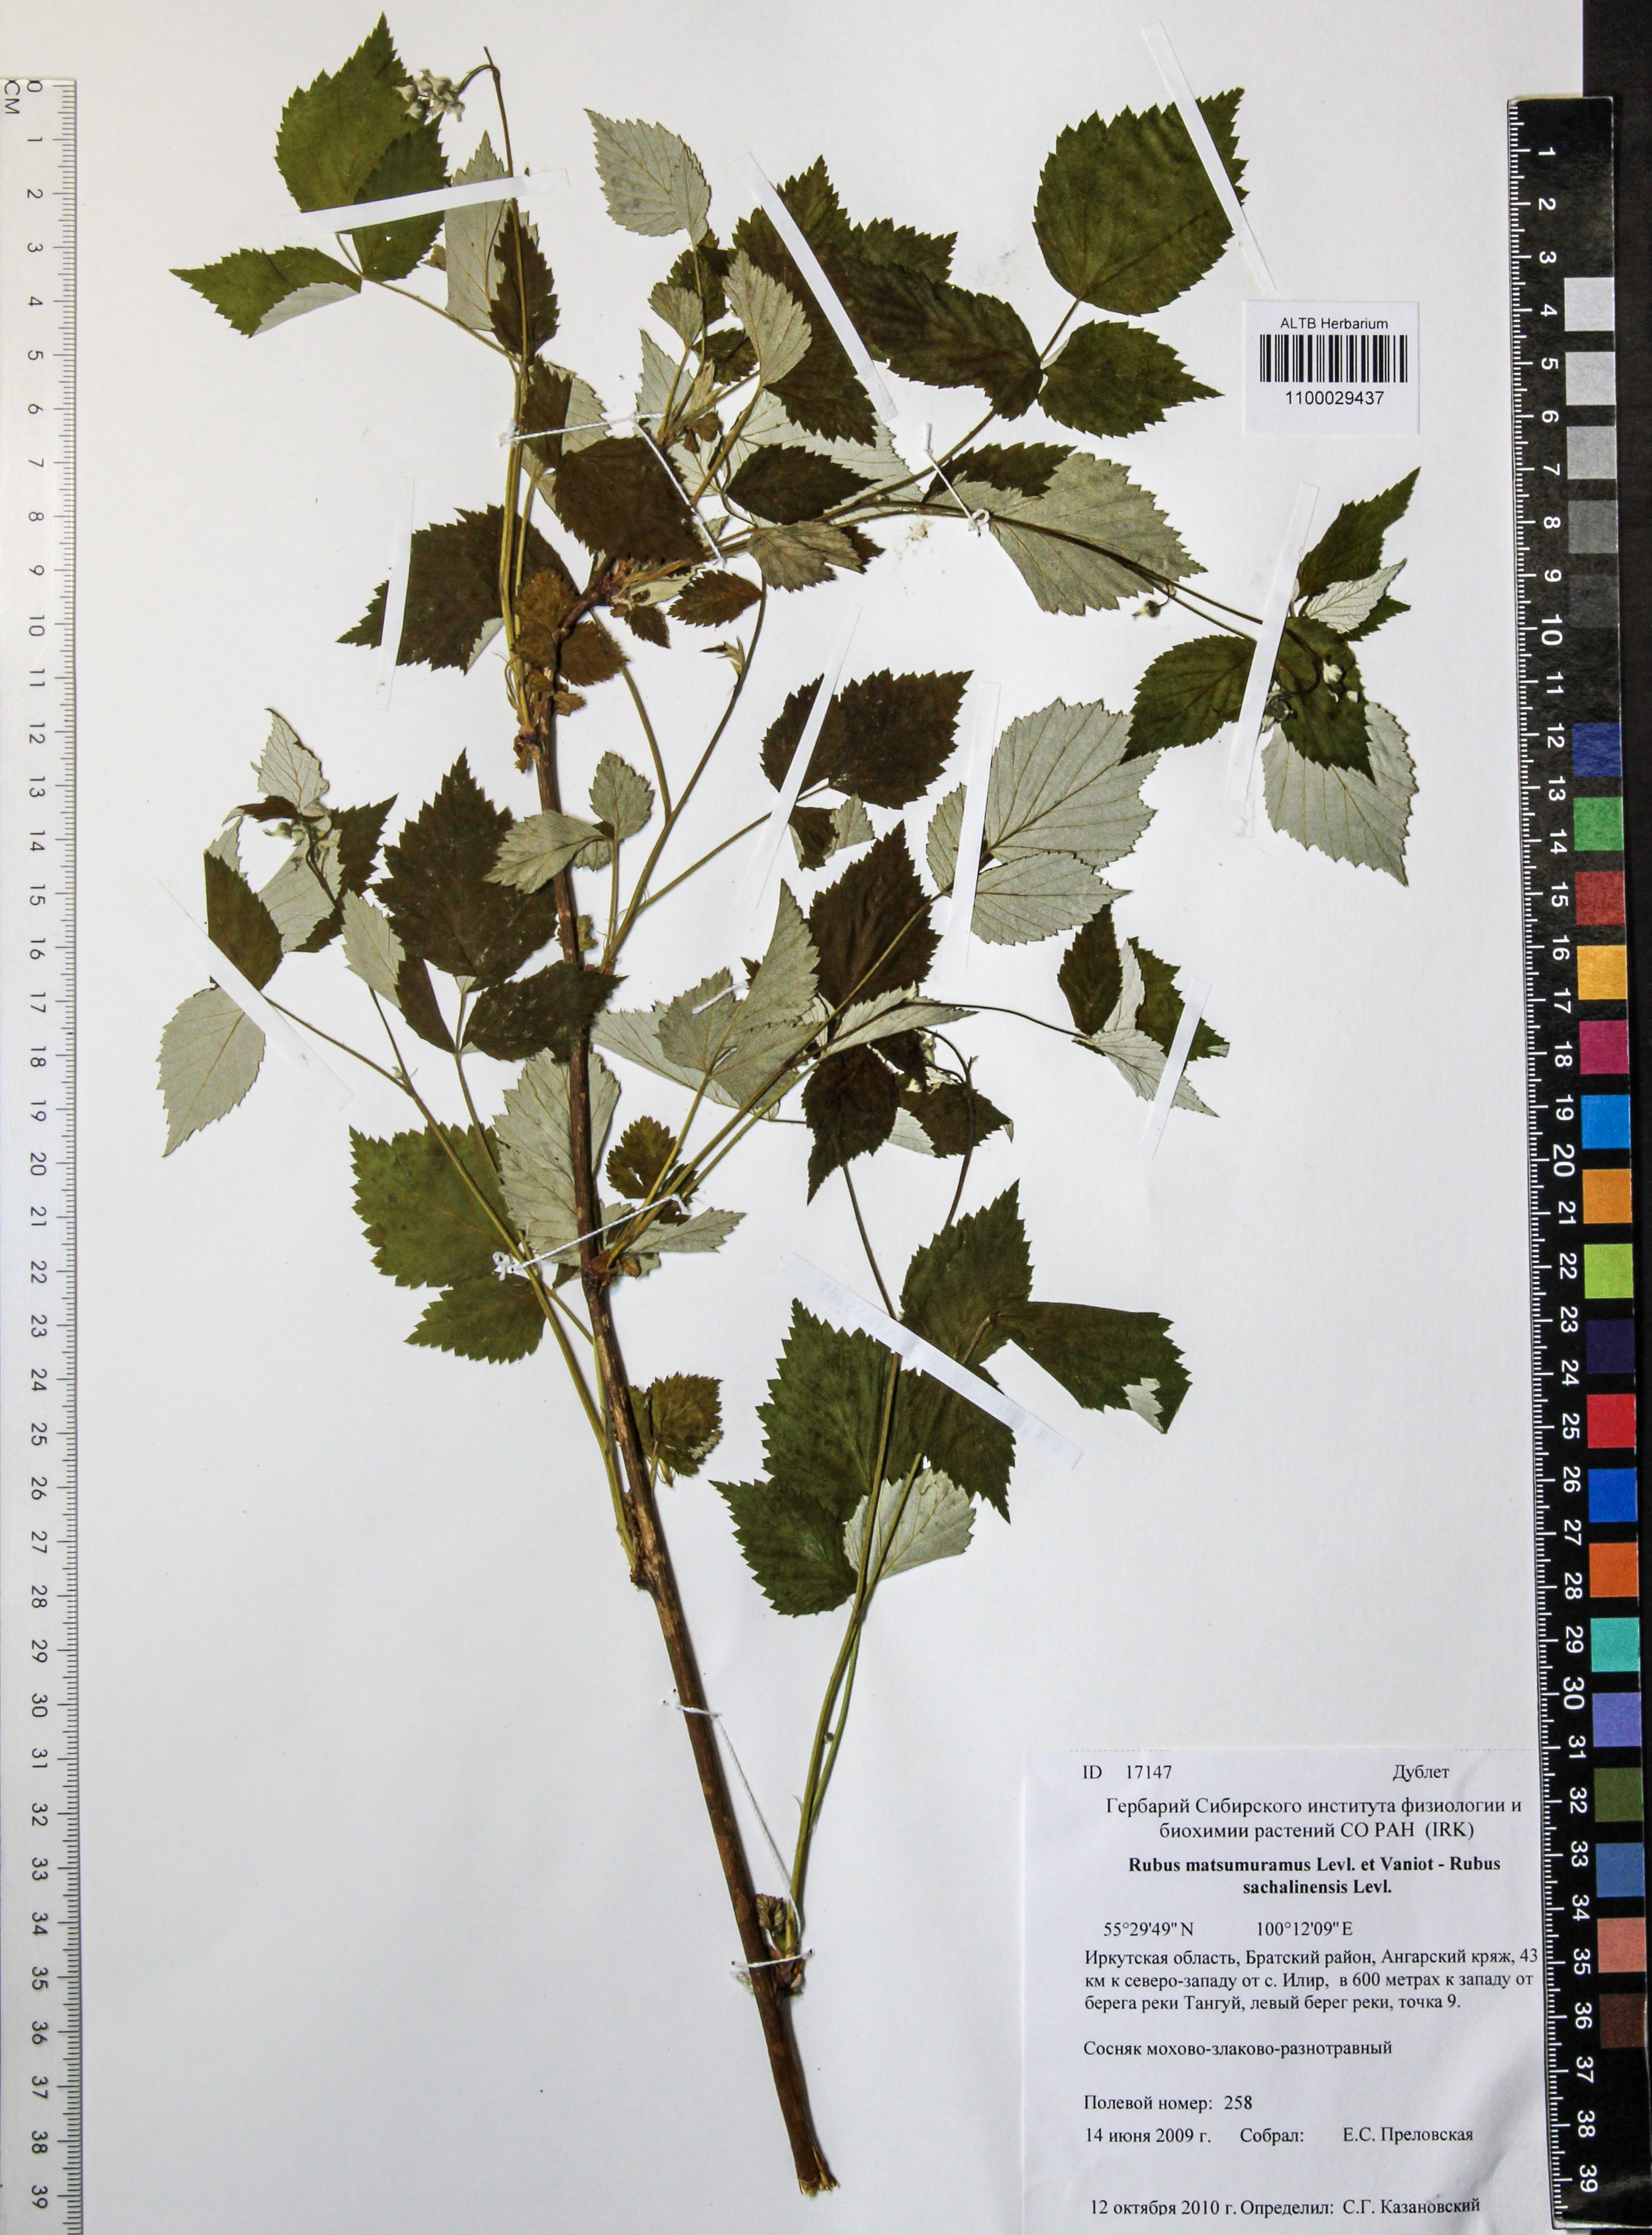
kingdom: Plantae
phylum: Tracheophyta
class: Magnoliopsida
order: Rosales
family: Rosaceae
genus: Rubus
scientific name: Rubus sachalinensis
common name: Red raspberry
